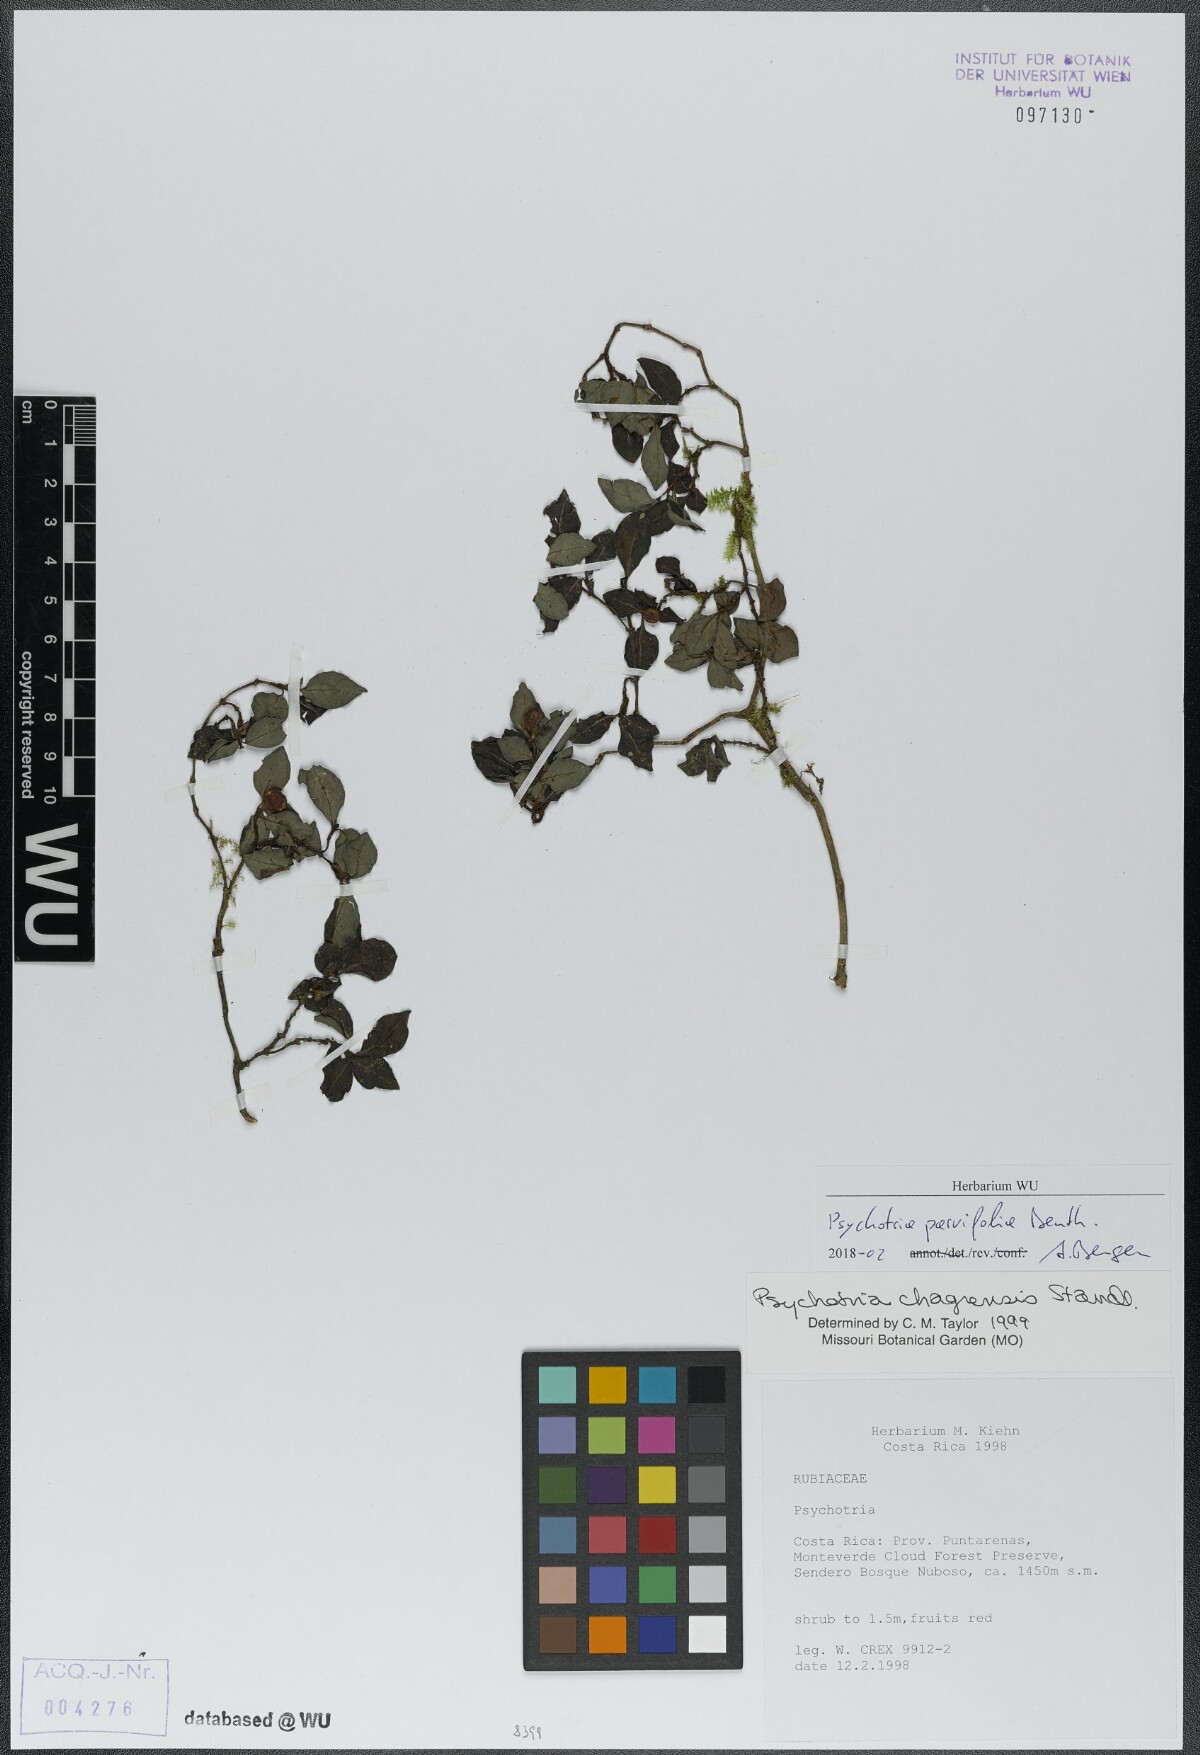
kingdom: Plantae
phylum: Tracheophyta
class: Magnoliopsida
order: Gentianales
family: Rubiaceae
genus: Psychotria
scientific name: Psychotria parvifolia
